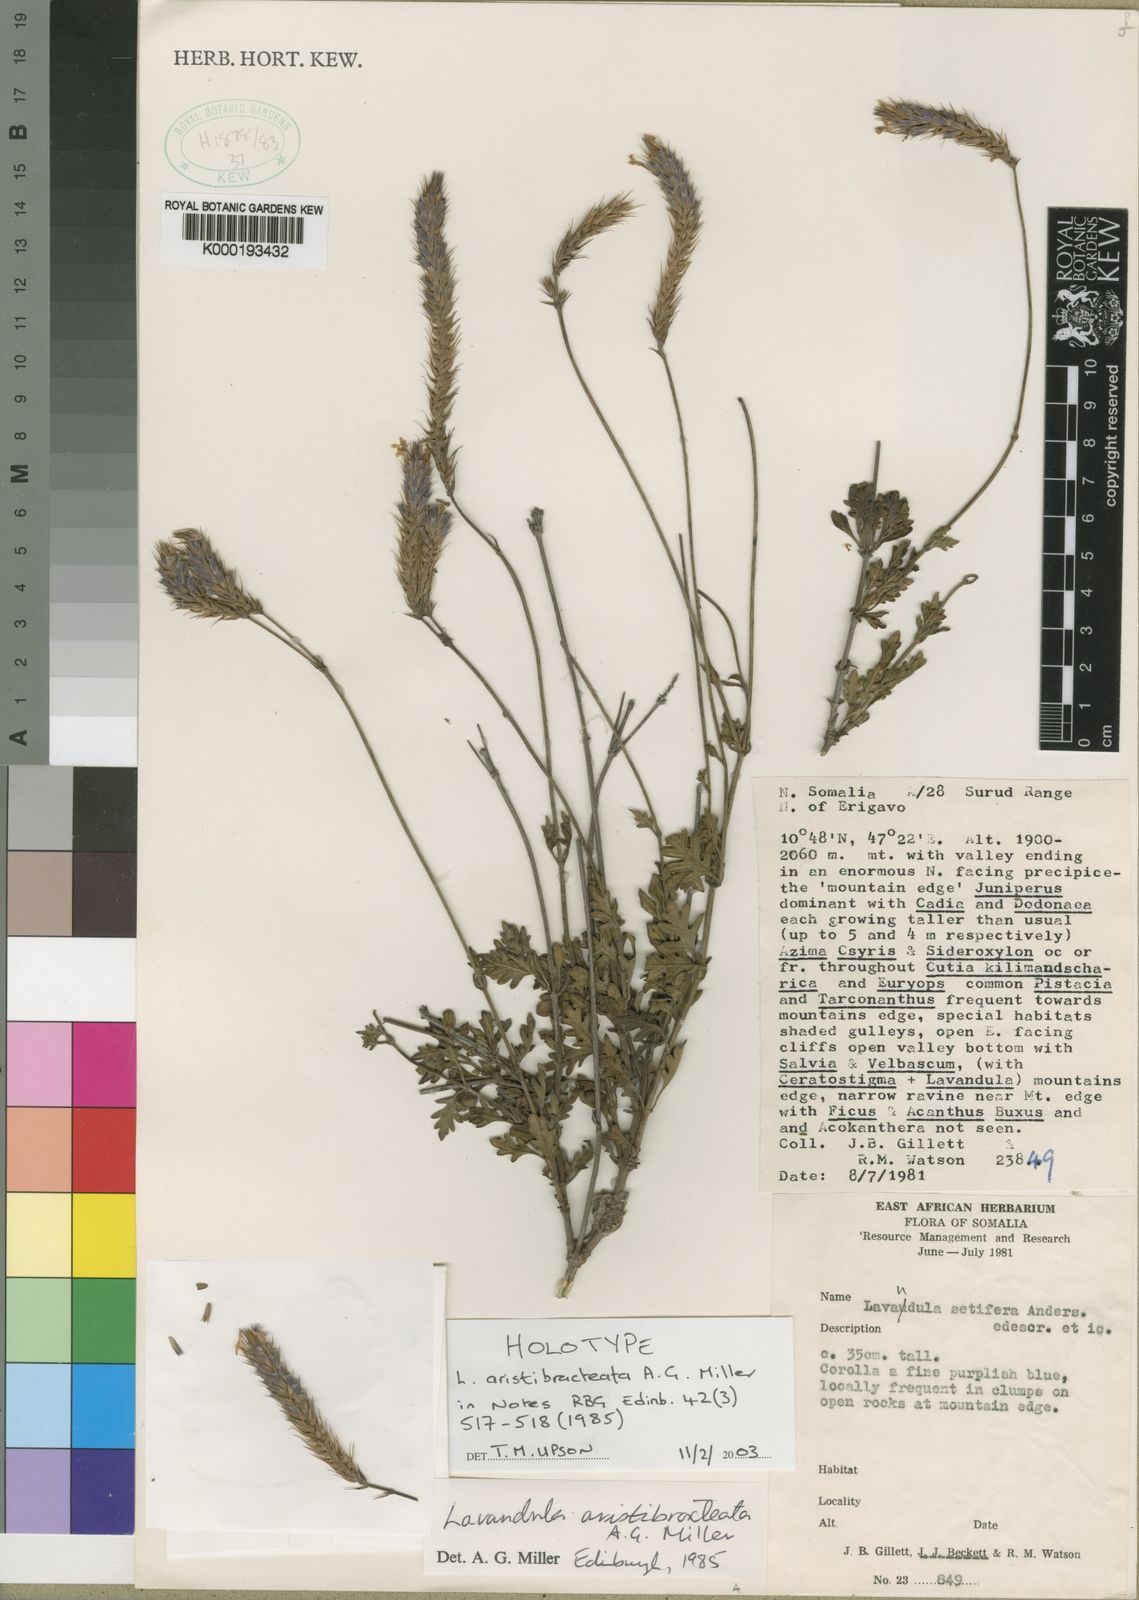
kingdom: Plantae
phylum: Tracheophyta
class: Magnoliopsida
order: Lamiales
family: Lamiaceae
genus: Lavandula
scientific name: Lavandula aristibracteata
